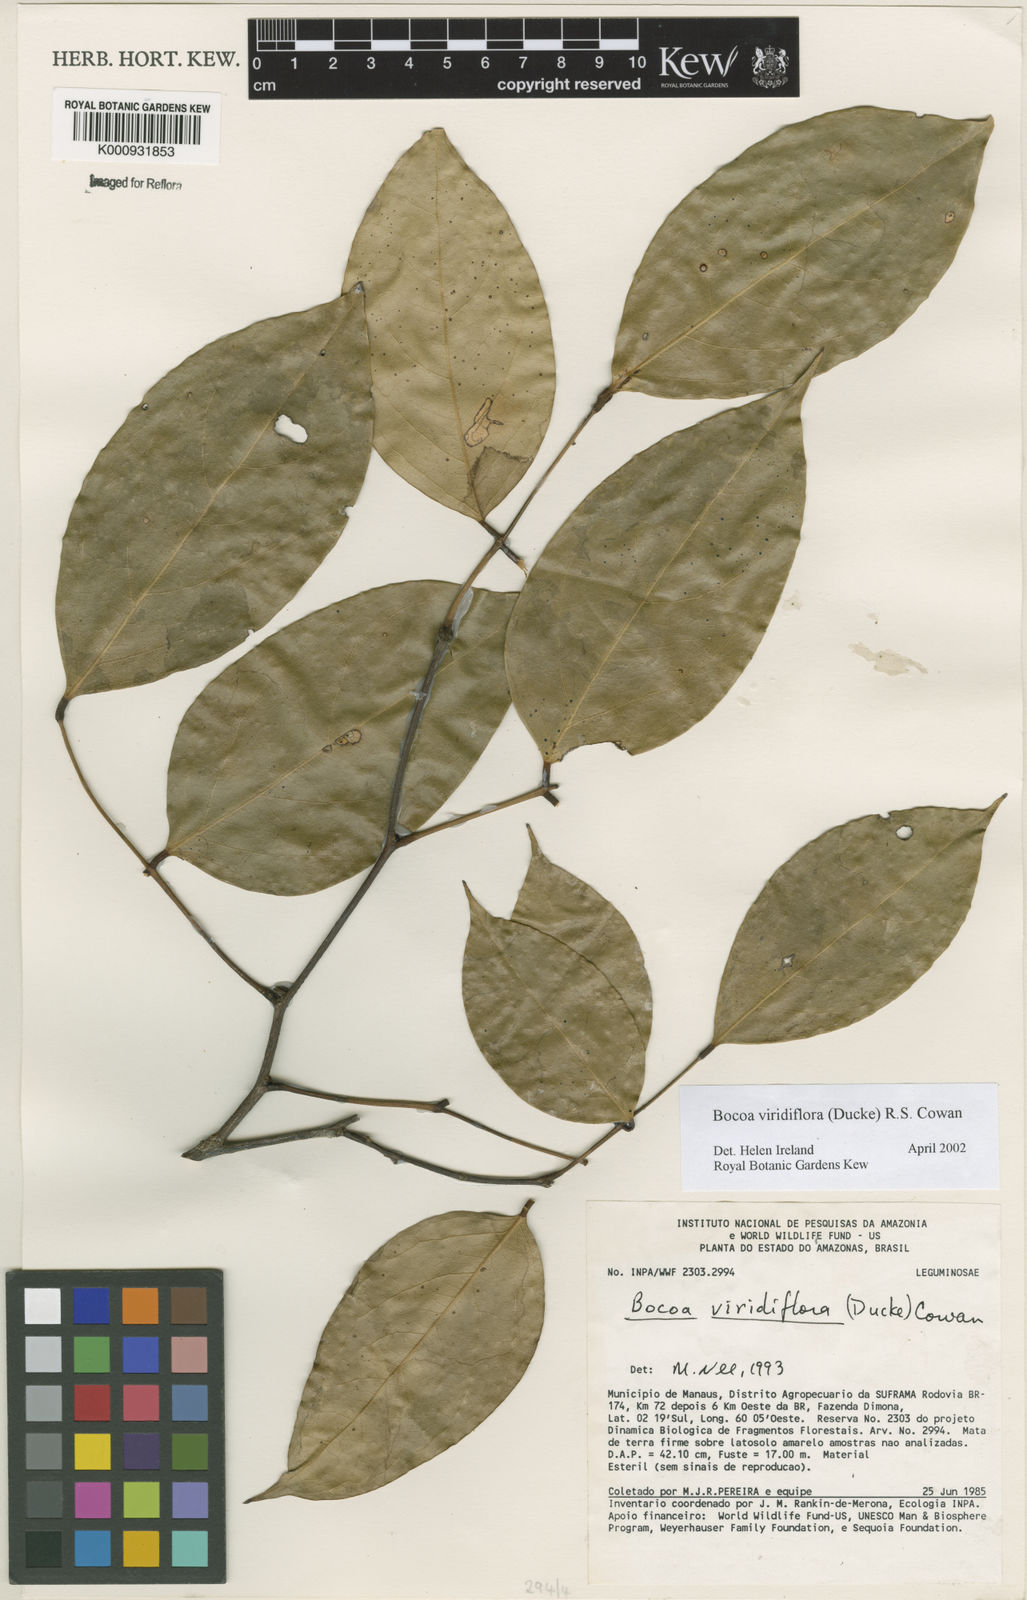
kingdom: Plantae
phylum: Tracheophyta
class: Magnoliopsida
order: Fabales
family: Fabaceae
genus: Bocoa
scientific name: Bocoa viridiflora
